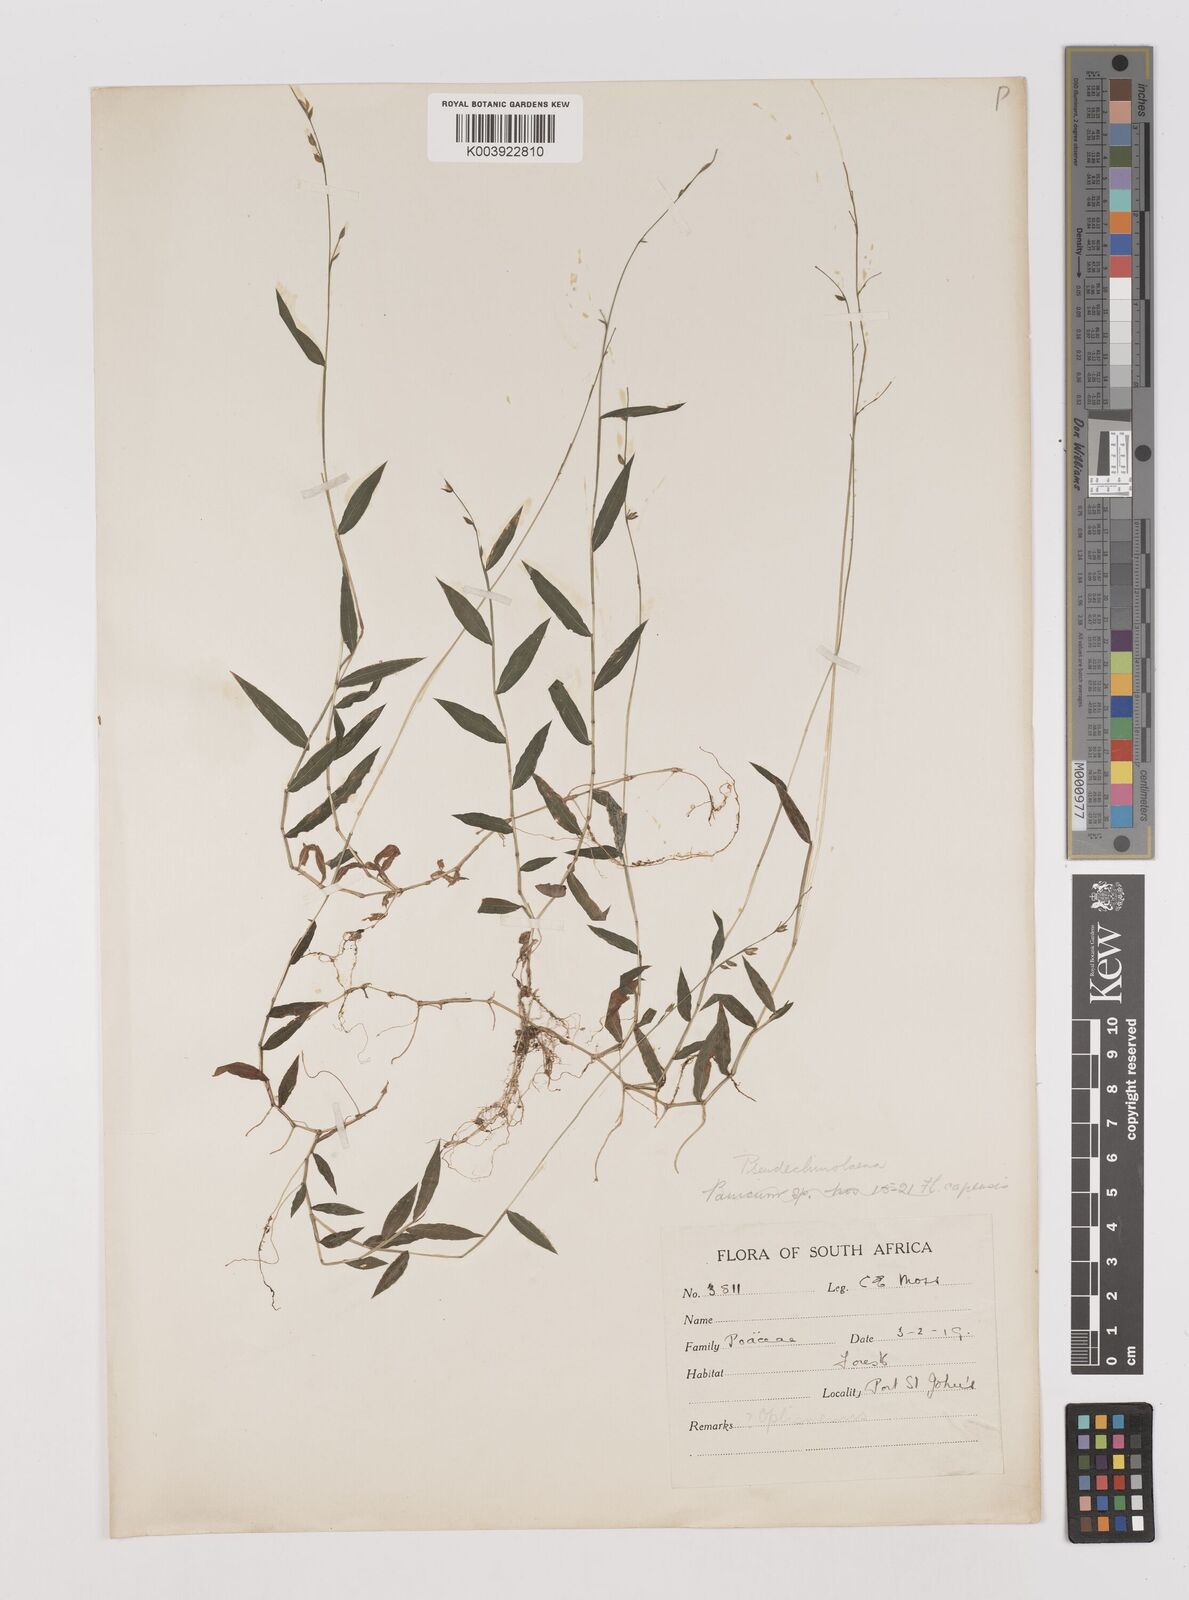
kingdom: Plantae
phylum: Tracheophyta
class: Liliopsida
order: Poales
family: Poaceae
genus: Pseudechinolaena
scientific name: Pseudechinolaena polystachya
